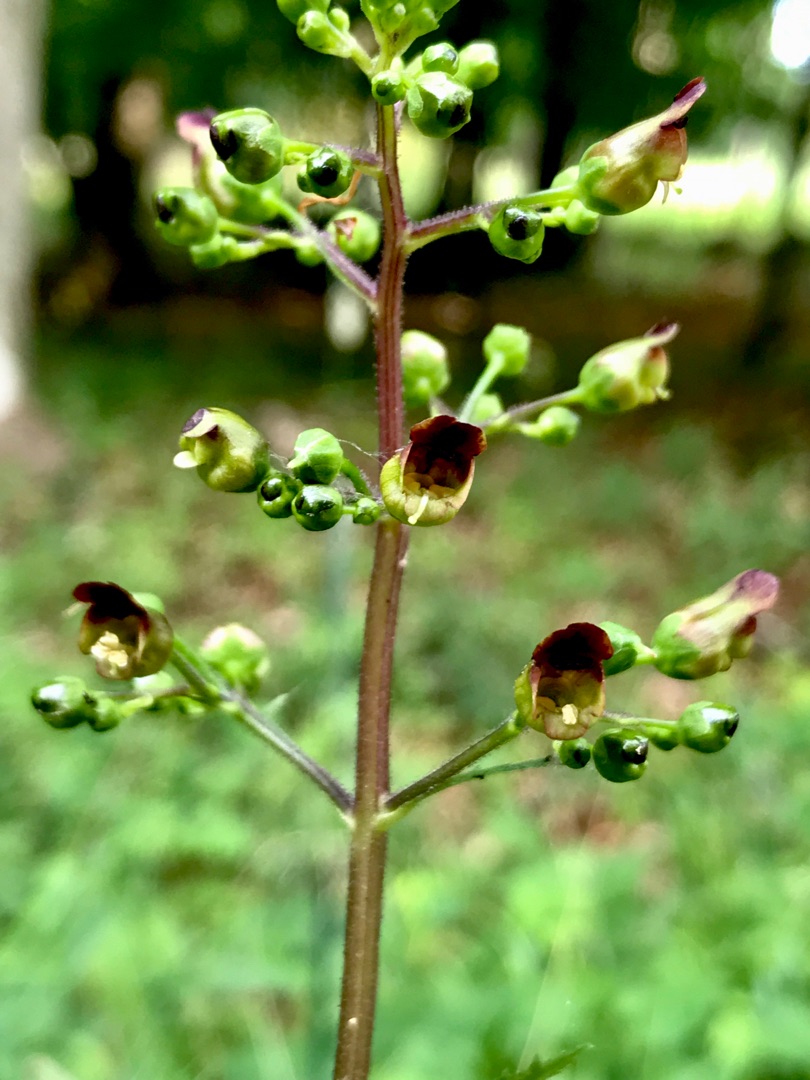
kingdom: Plantae
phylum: Tracheophyta
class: Magnoliopsida
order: Lamiales
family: Scrophulariaceae
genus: Scrophularia
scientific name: Scrophularia nodosa
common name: Knoldet brunrod
